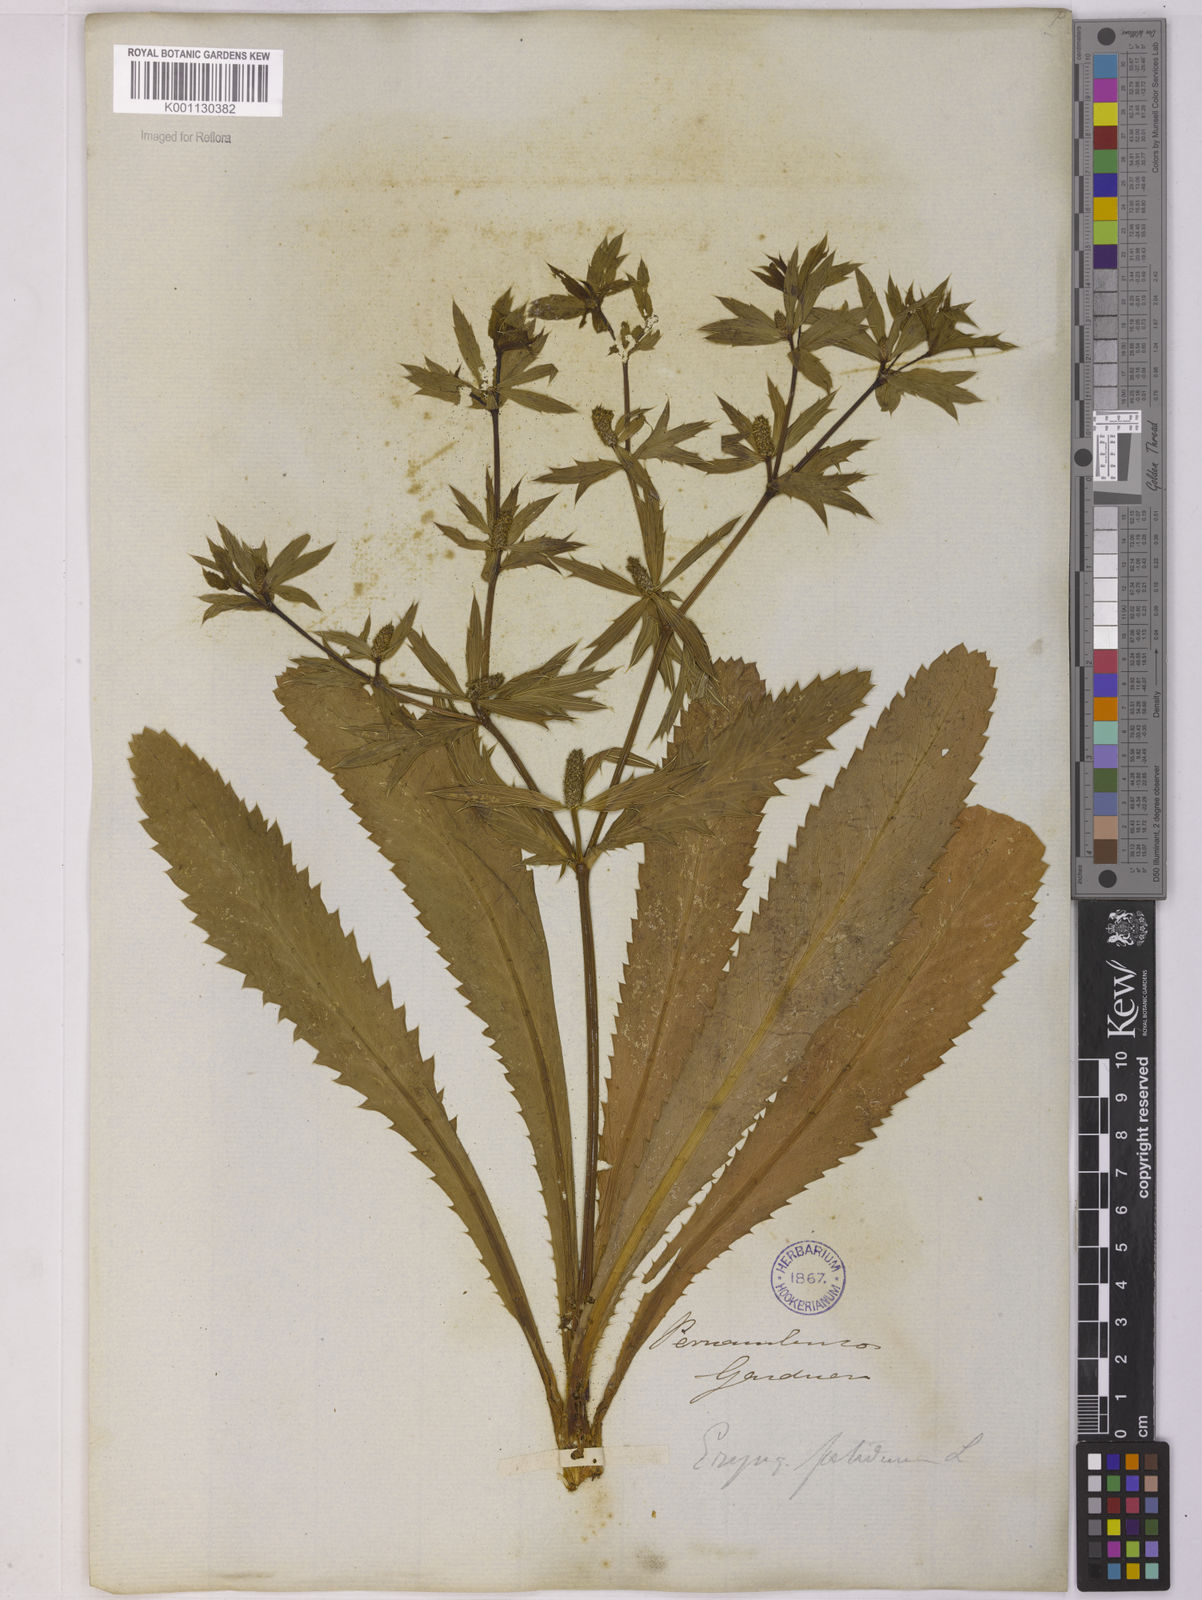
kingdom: Plantae
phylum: Tracheophyta
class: Magnoliopsida
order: Apiales
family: Apiaceae
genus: Eryngium
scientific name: Eryngium foetidum
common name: Fitweed
